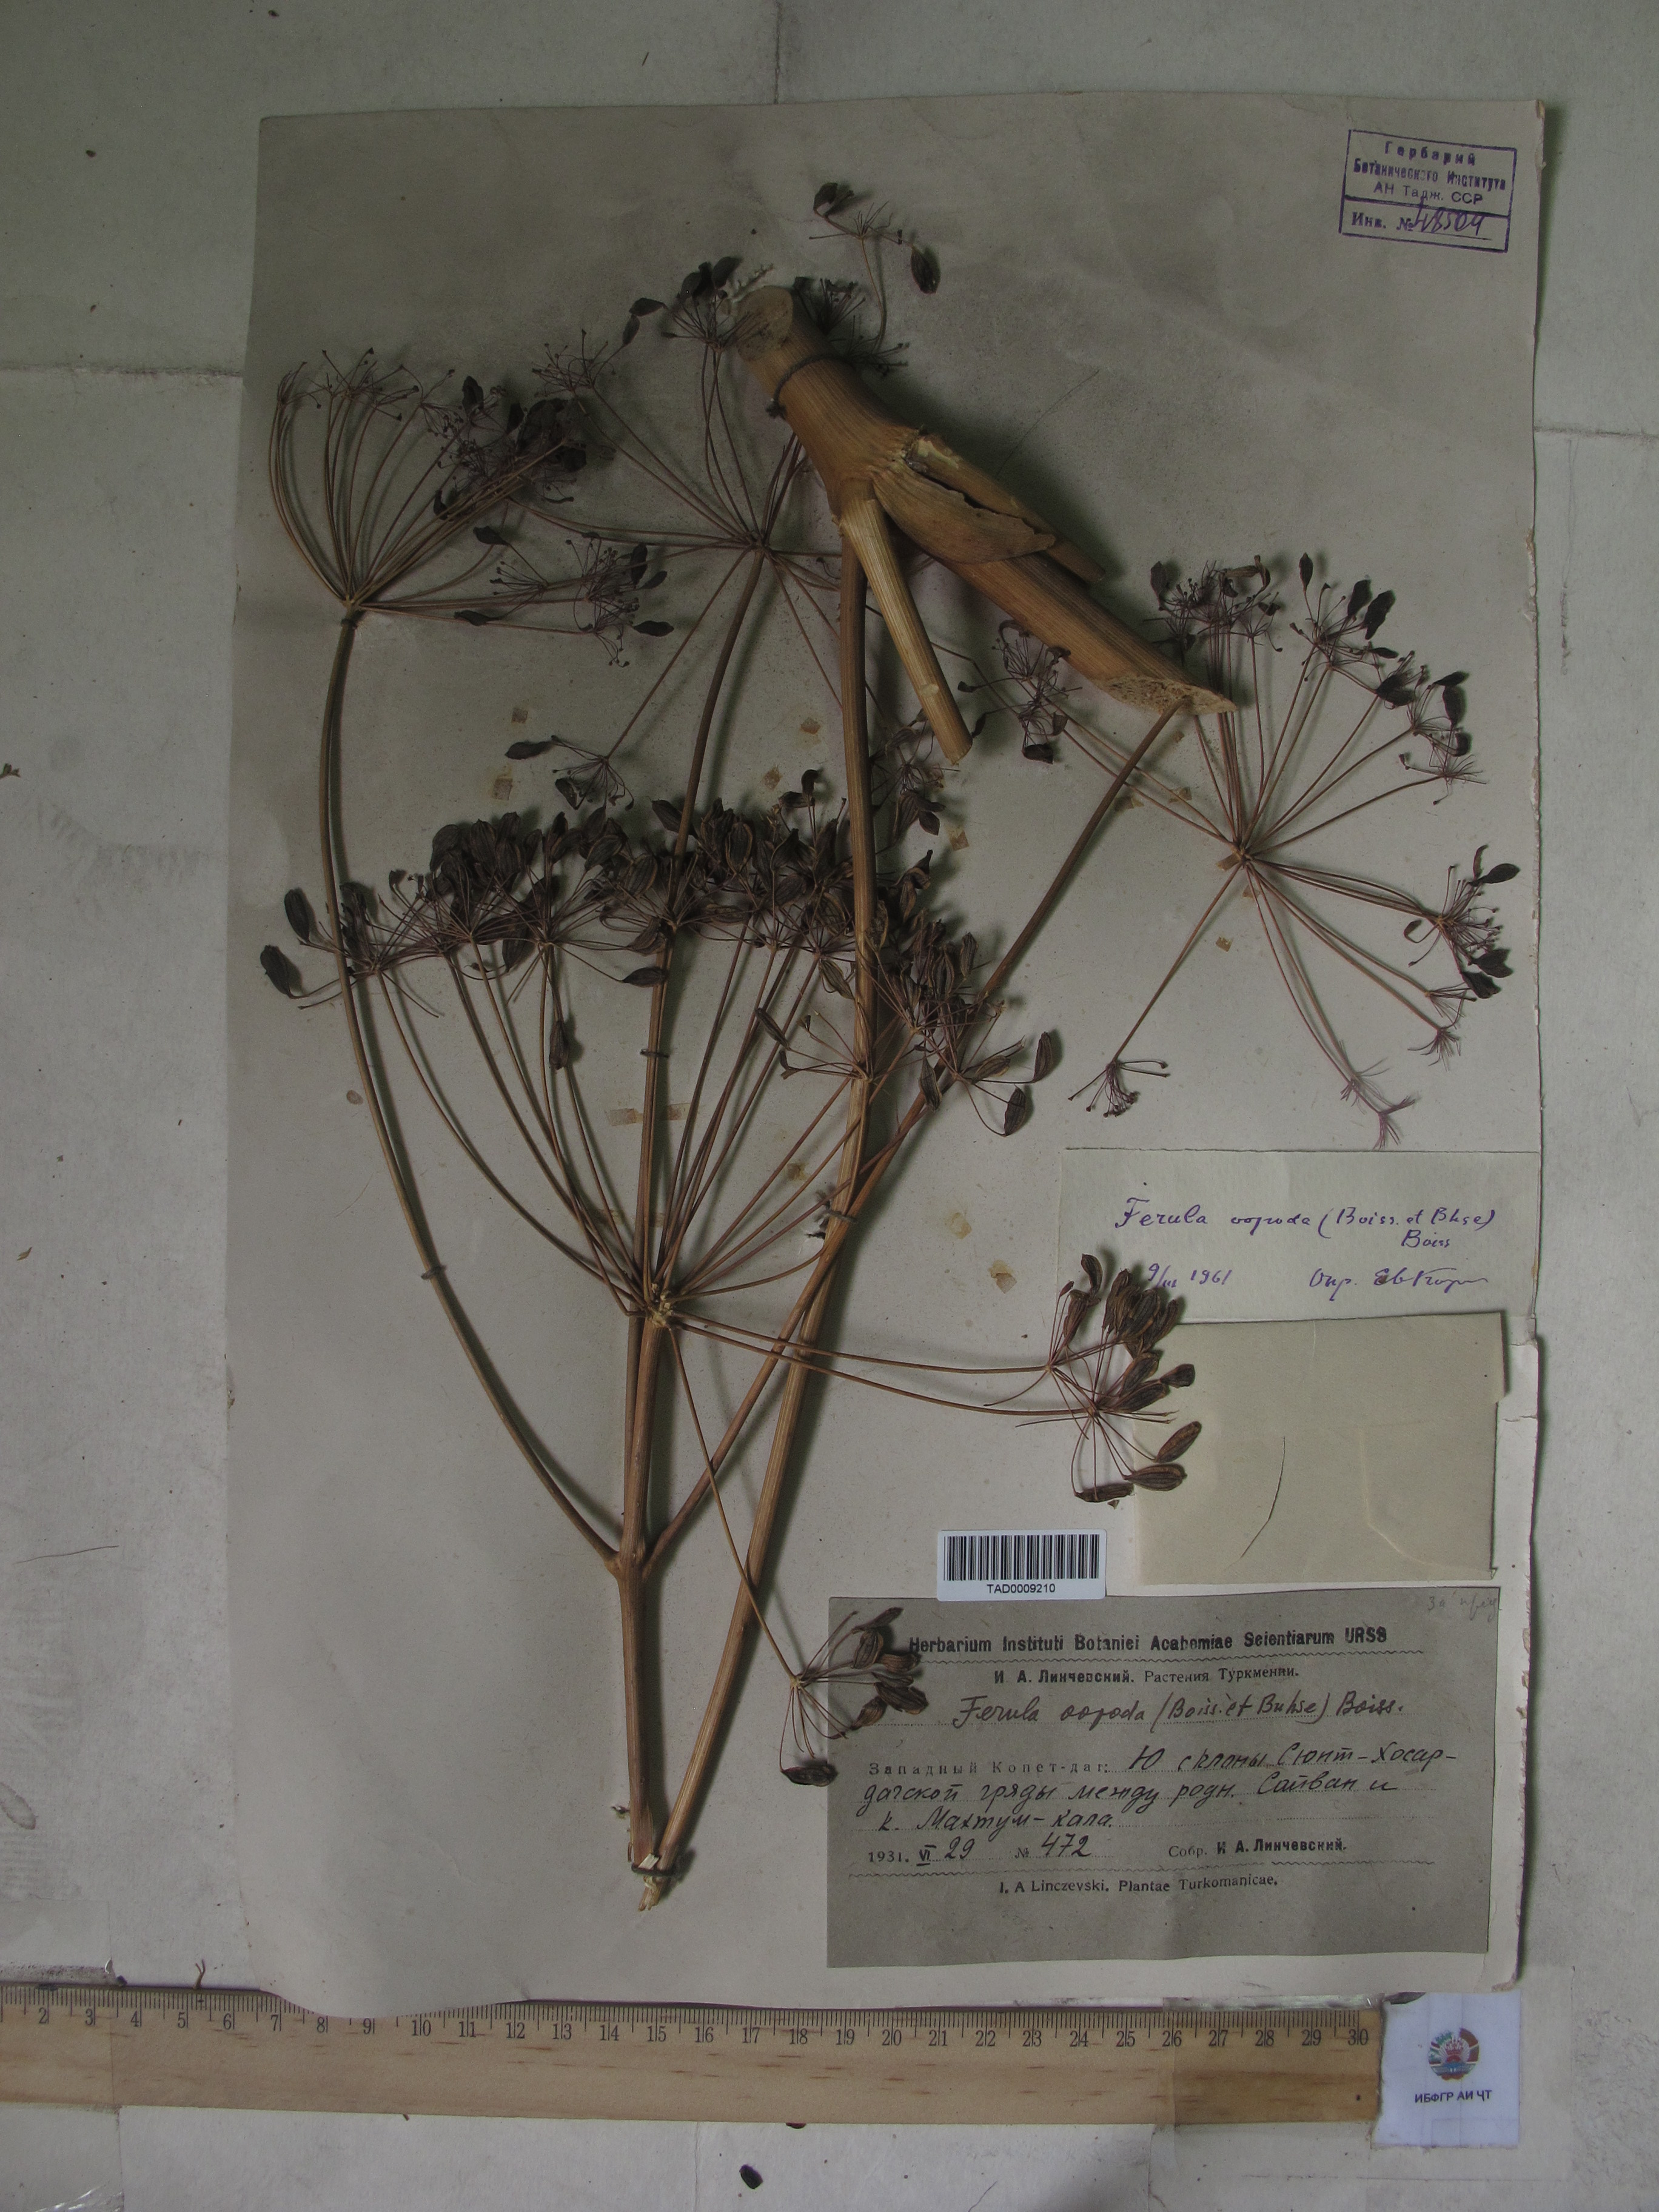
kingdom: Plantae
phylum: Tracheophyta
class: Magnoliopsida
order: Apiales
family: Apiaceae
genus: Ferula
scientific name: Ferula ovina
